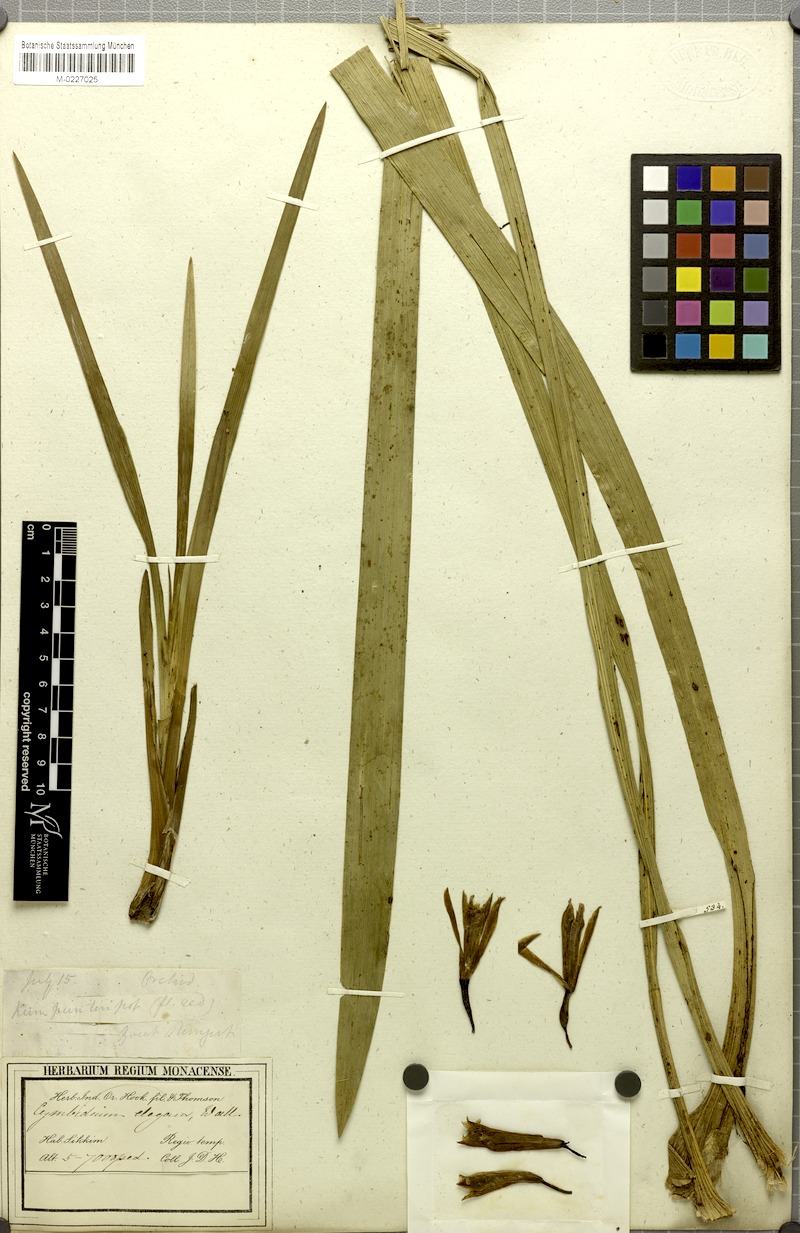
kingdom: Plantae
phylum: Tracheophyta
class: Liliopsida
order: Asparagales
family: Orchidaceae
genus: Cymbidium
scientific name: Cymbidium elegans
